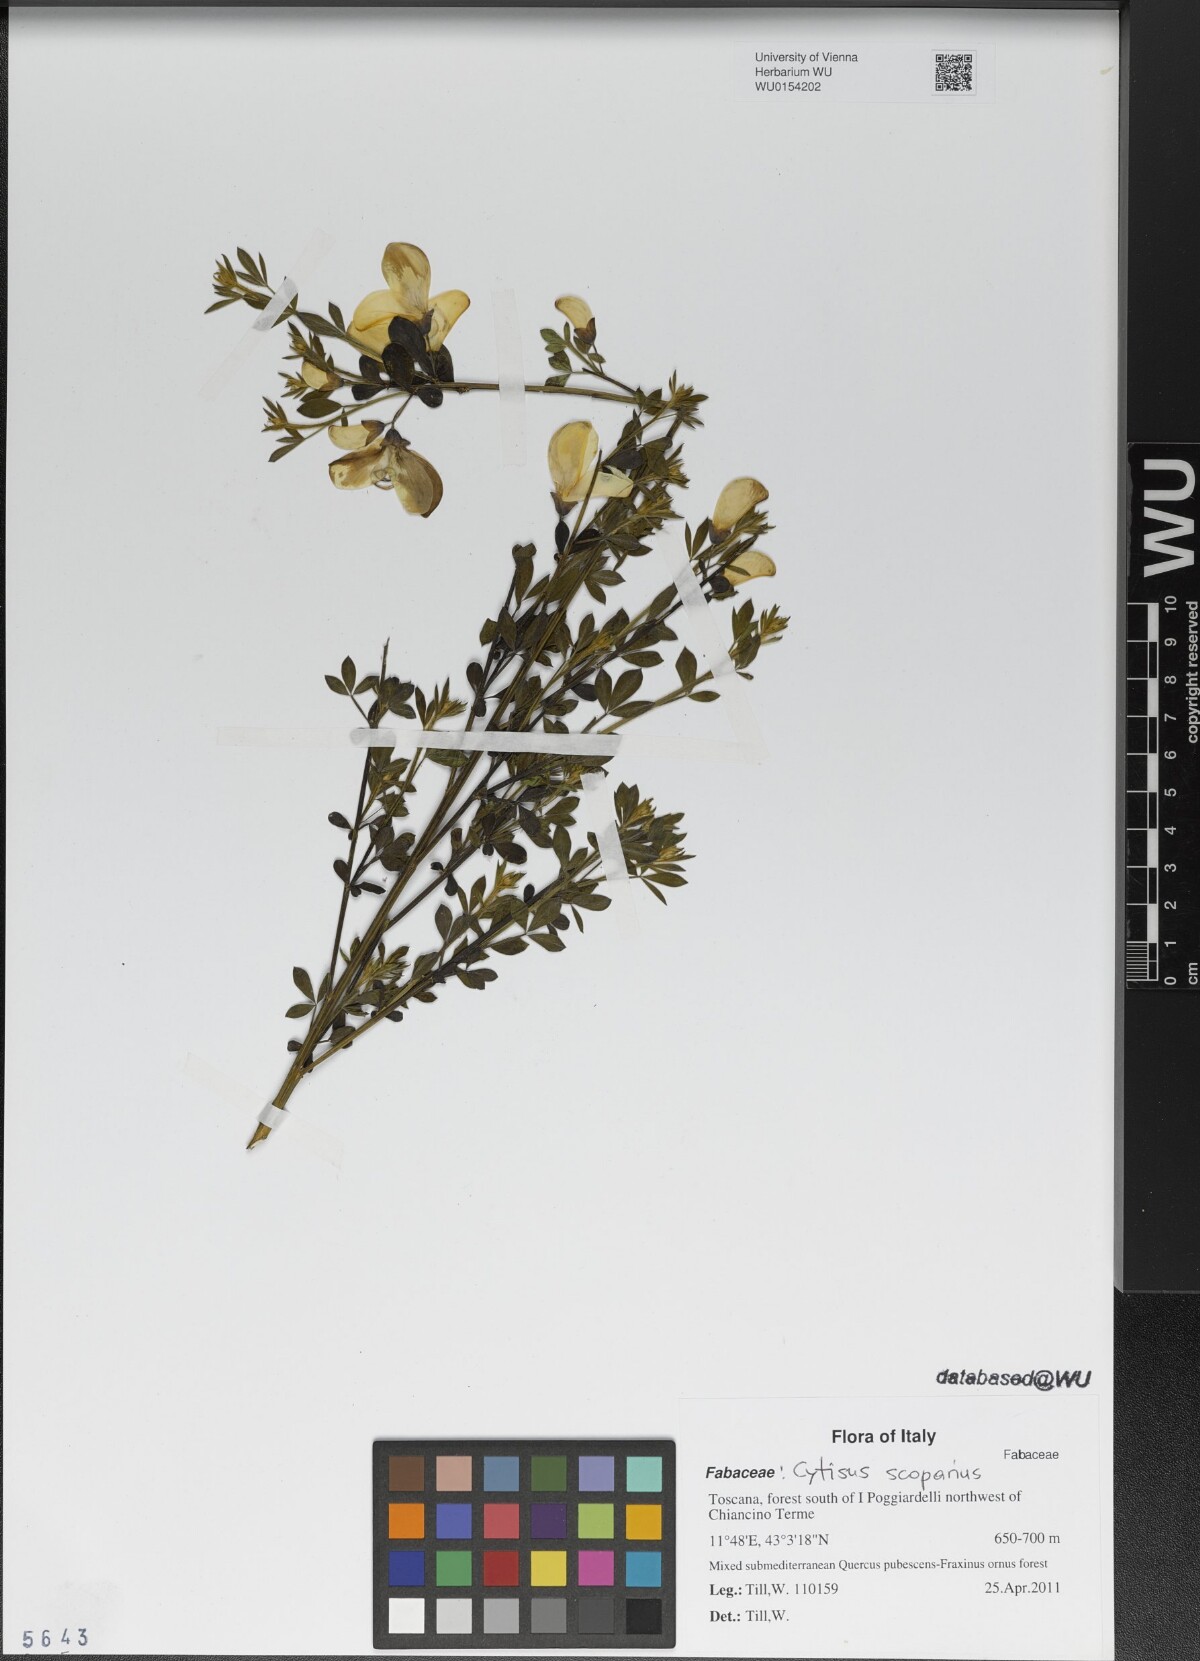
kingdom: Plantae
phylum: Tracheophyta
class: Magnoliopsida
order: Fabales
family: Fabaceae
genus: Cytisus
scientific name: Cytisus scoparius
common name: Scotch broom
